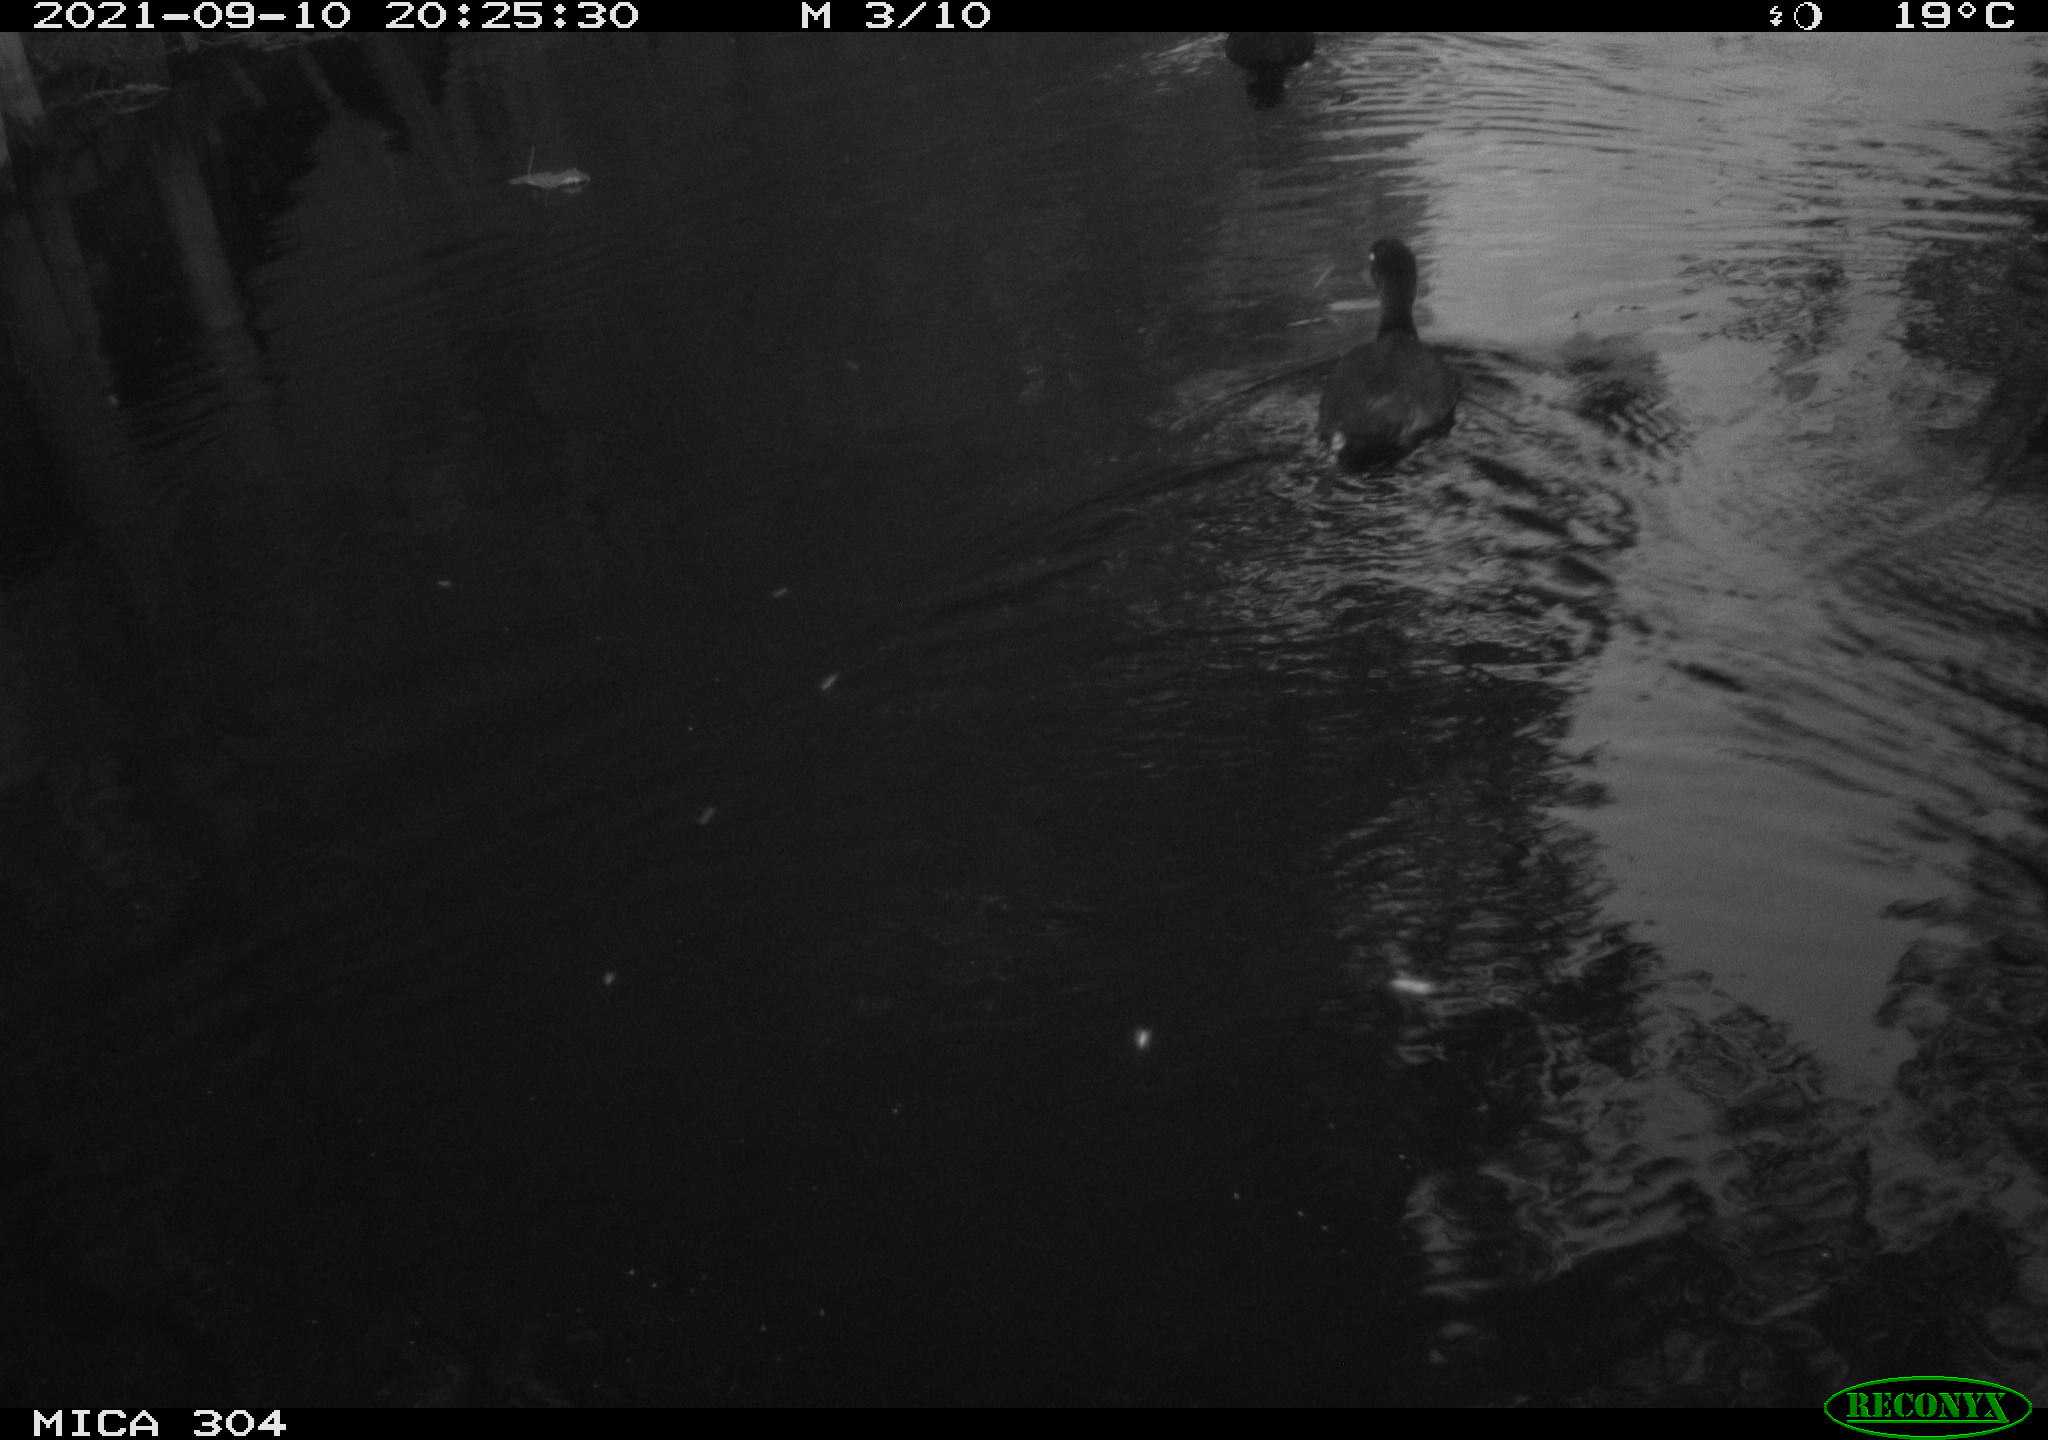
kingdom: Animalia
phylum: Chordata
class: Aves
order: Gruiformes
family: Rallidae
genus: Fulica
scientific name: Fulica atra
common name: Eurasian coot
